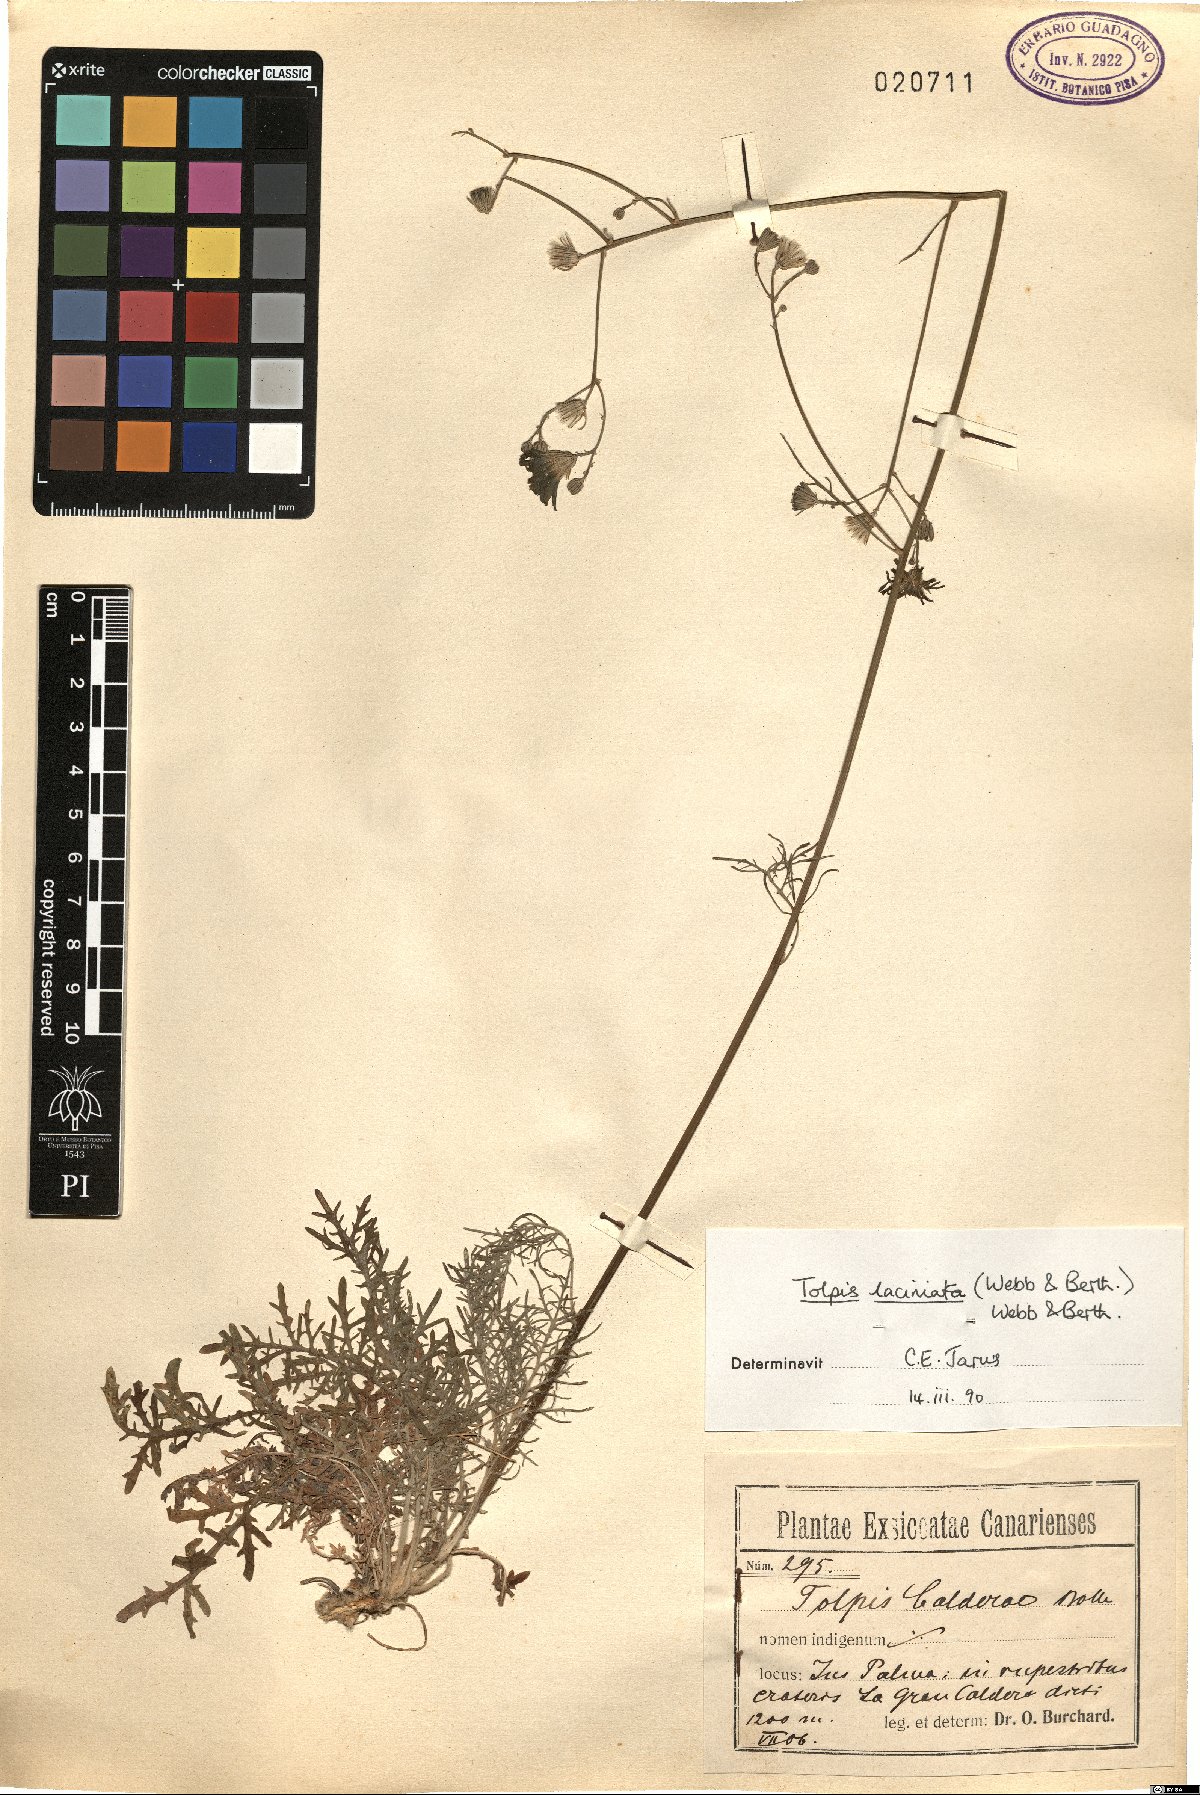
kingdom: Plantae
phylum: Tracheophyta
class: Magnoliopsida
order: Asterales
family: Asteraceae
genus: Tolpis
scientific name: Tolpis laciniata
